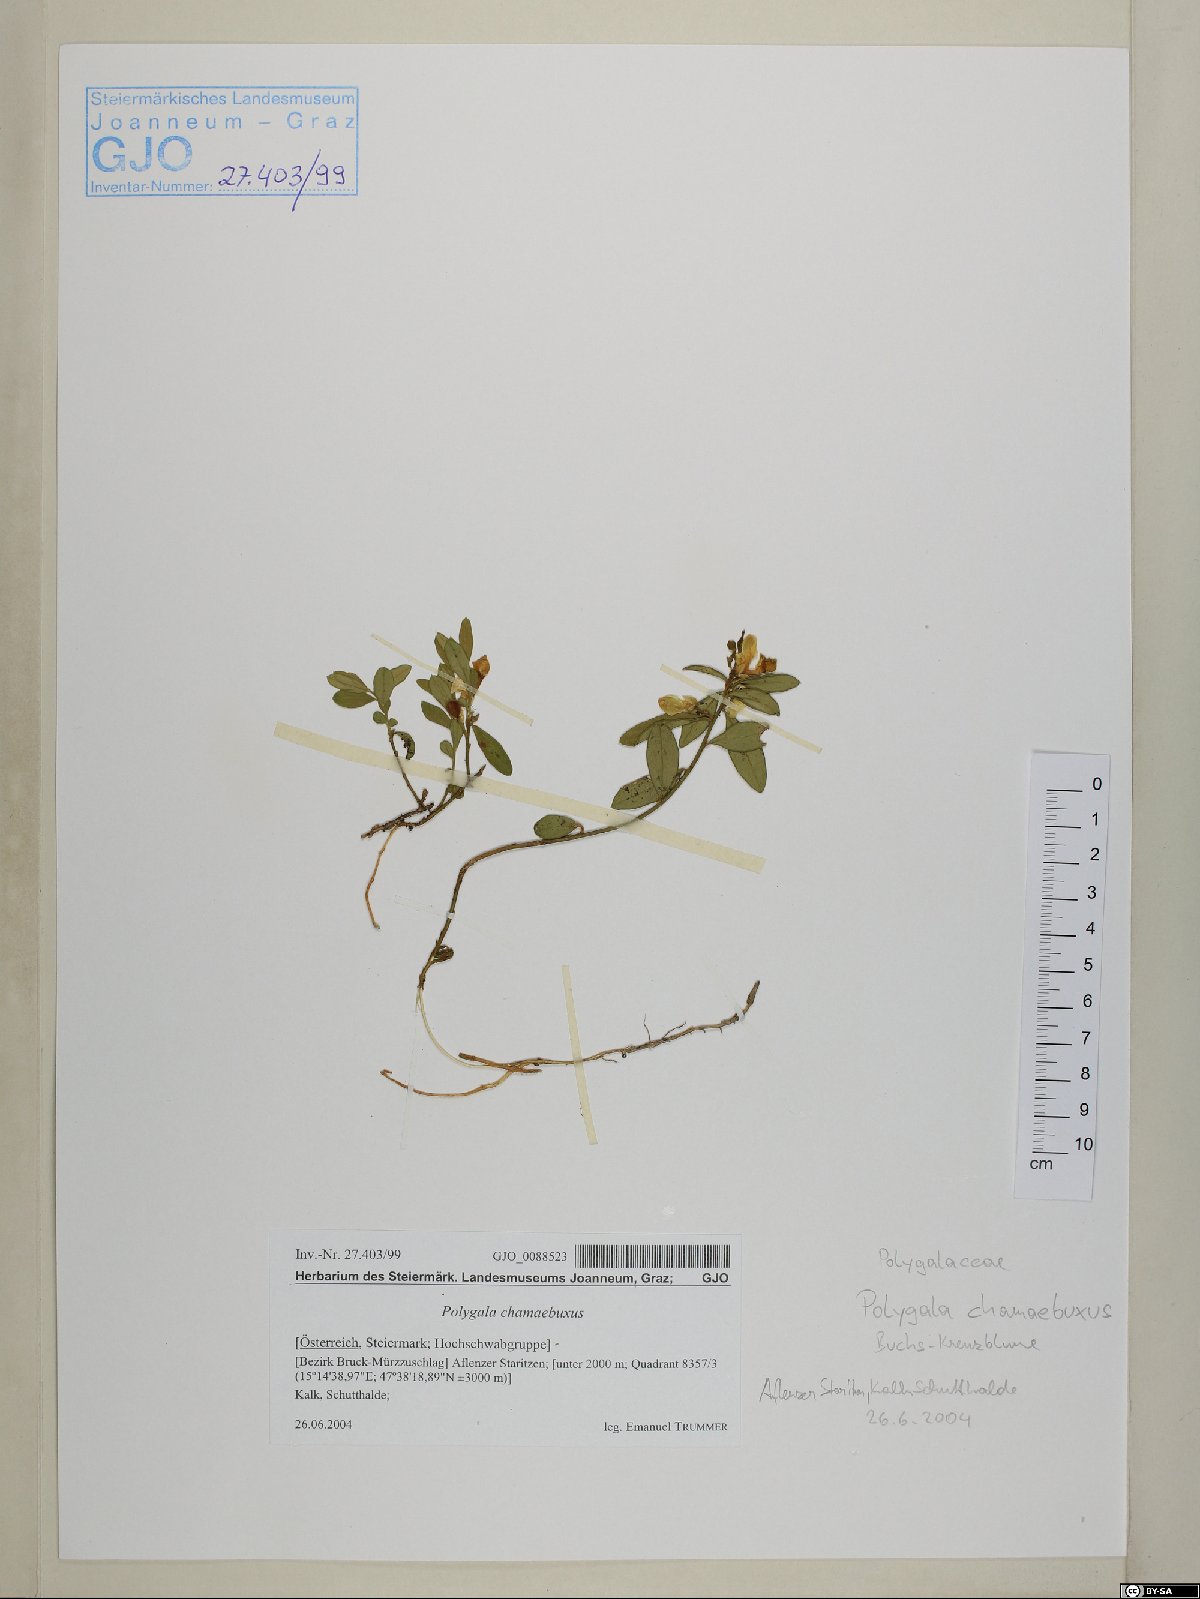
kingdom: Plantae
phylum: Tracheophyta
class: Magnoliopsida
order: Fabales
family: Polygalaceae
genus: Polygaloides
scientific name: Polygaloides chamaebuxus
